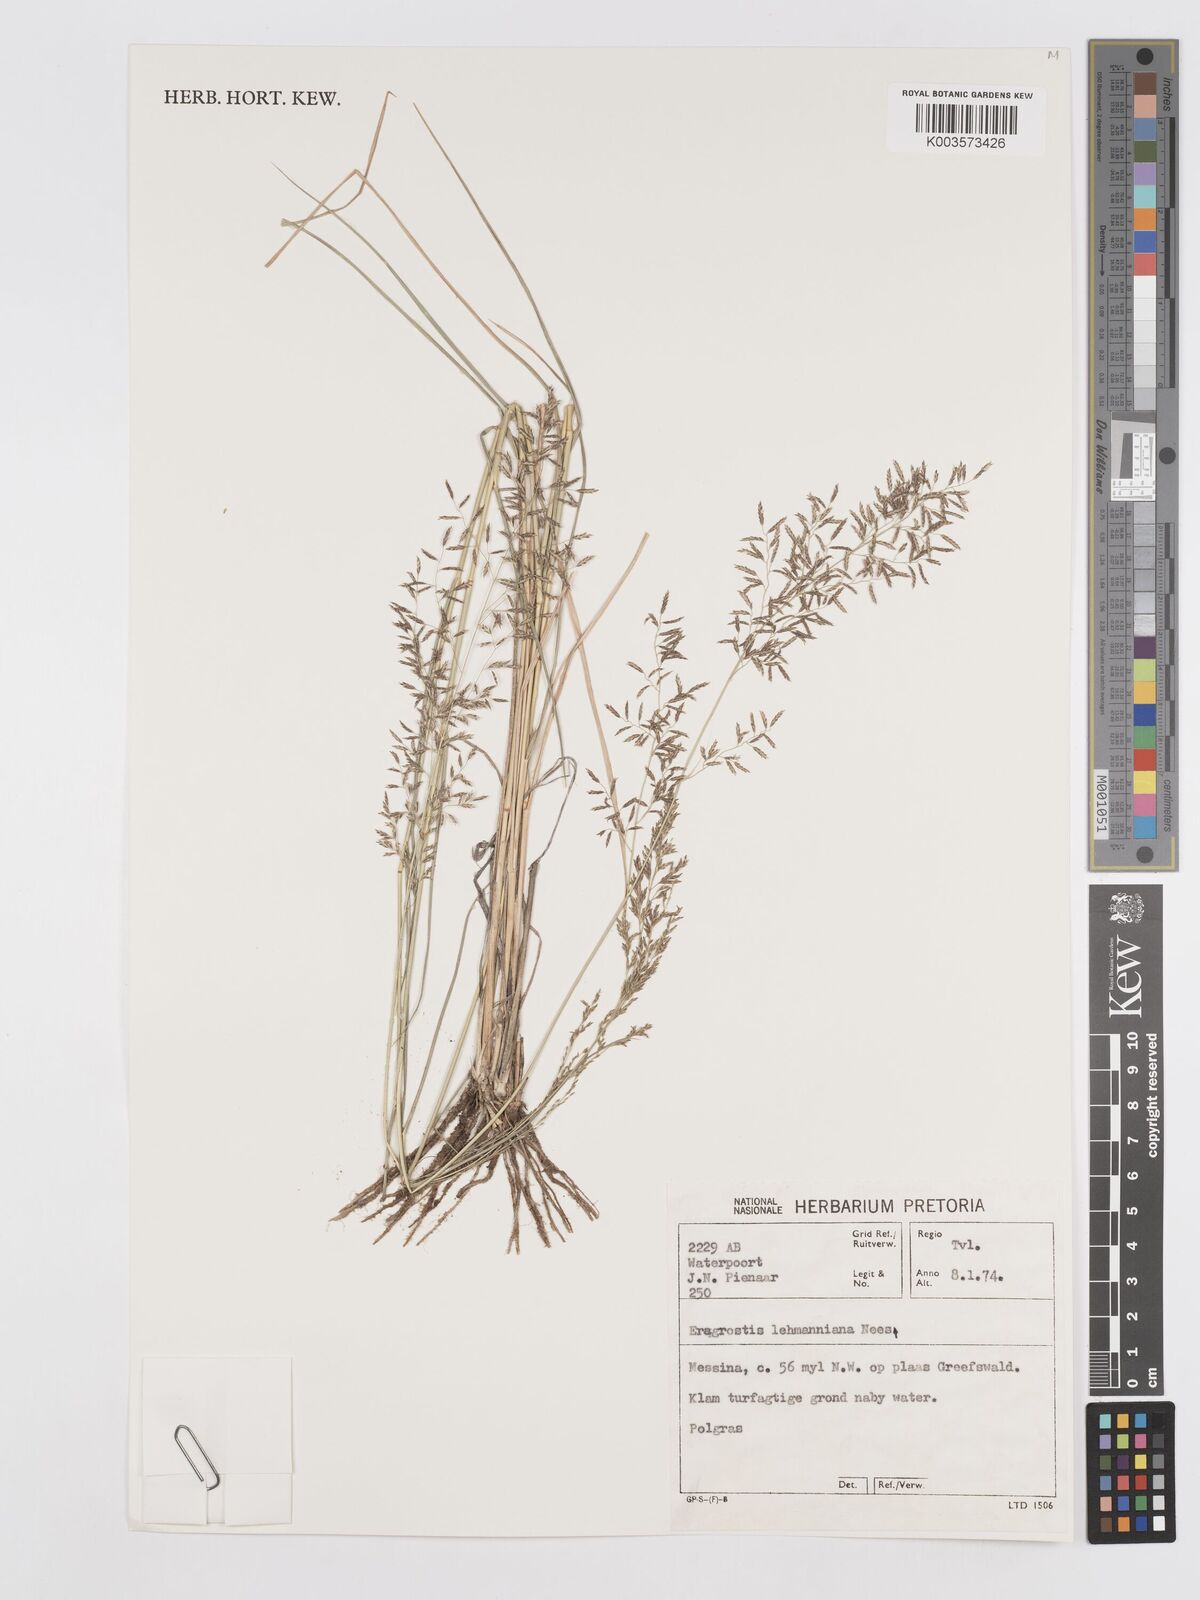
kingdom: Plantae
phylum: Tracheophyta
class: Liliopsida
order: Poales
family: Poaceae
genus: Eragrostis
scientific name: Eragrostis lehmanniana
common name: Lehmann lovegrass
